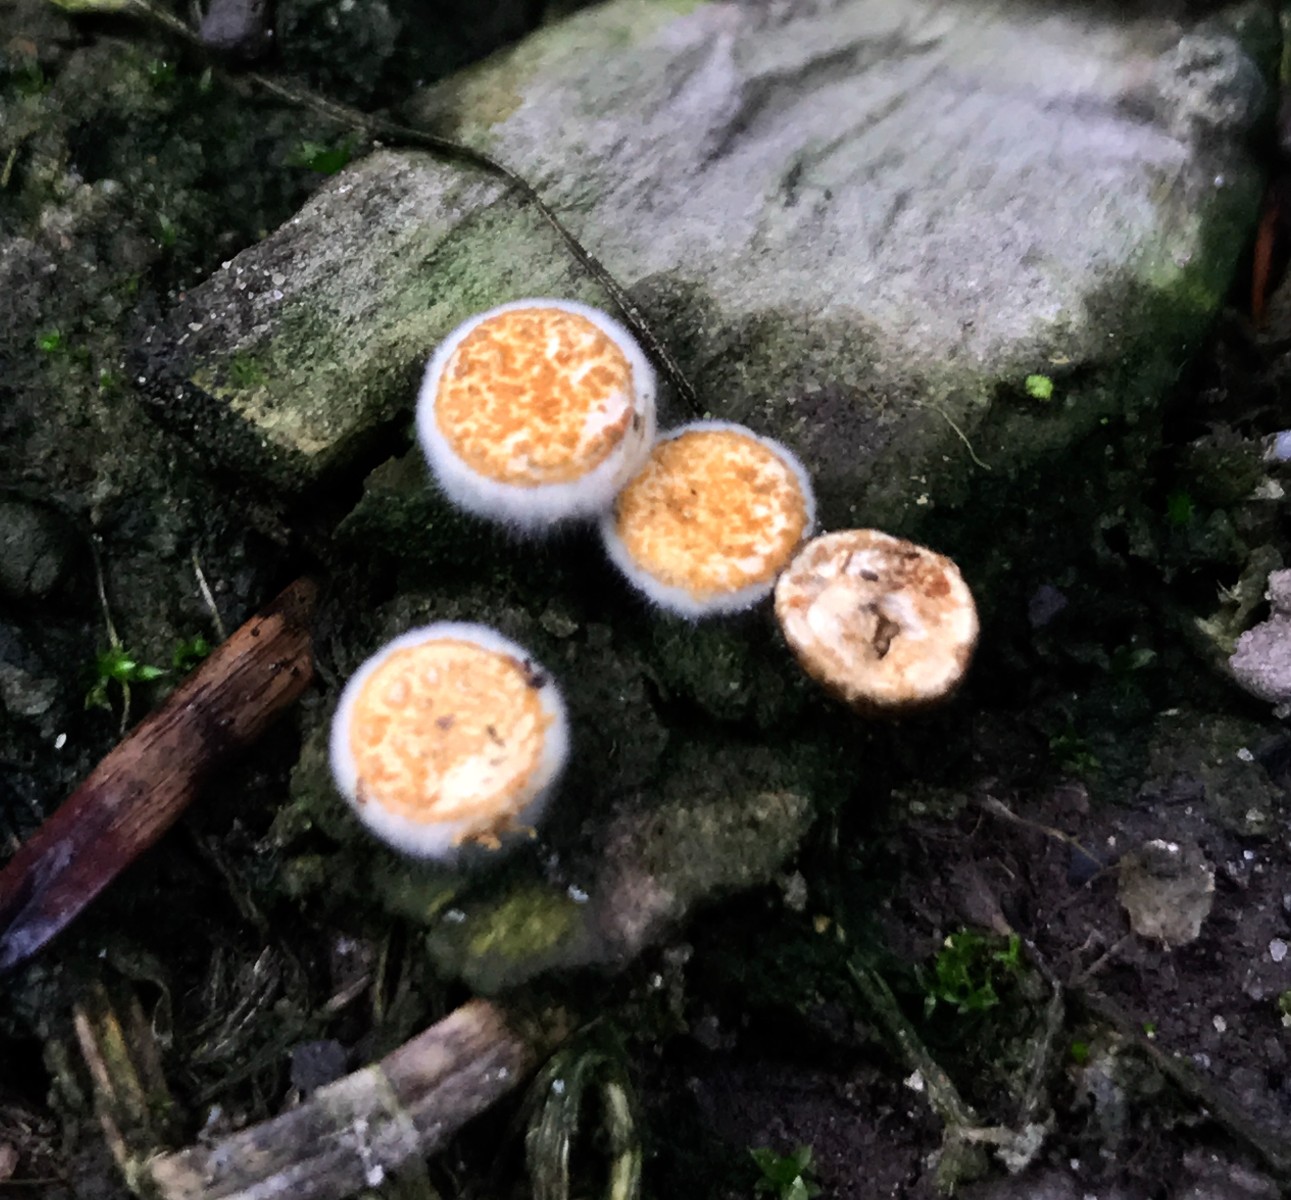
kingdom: Fungi
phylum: Basidiomycota
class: Agaricomycetes
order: Agaricales
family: Nidulariaceae
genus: Crucibulum
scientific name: Crucibulum crucibuliforme
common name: krukkesvamp
